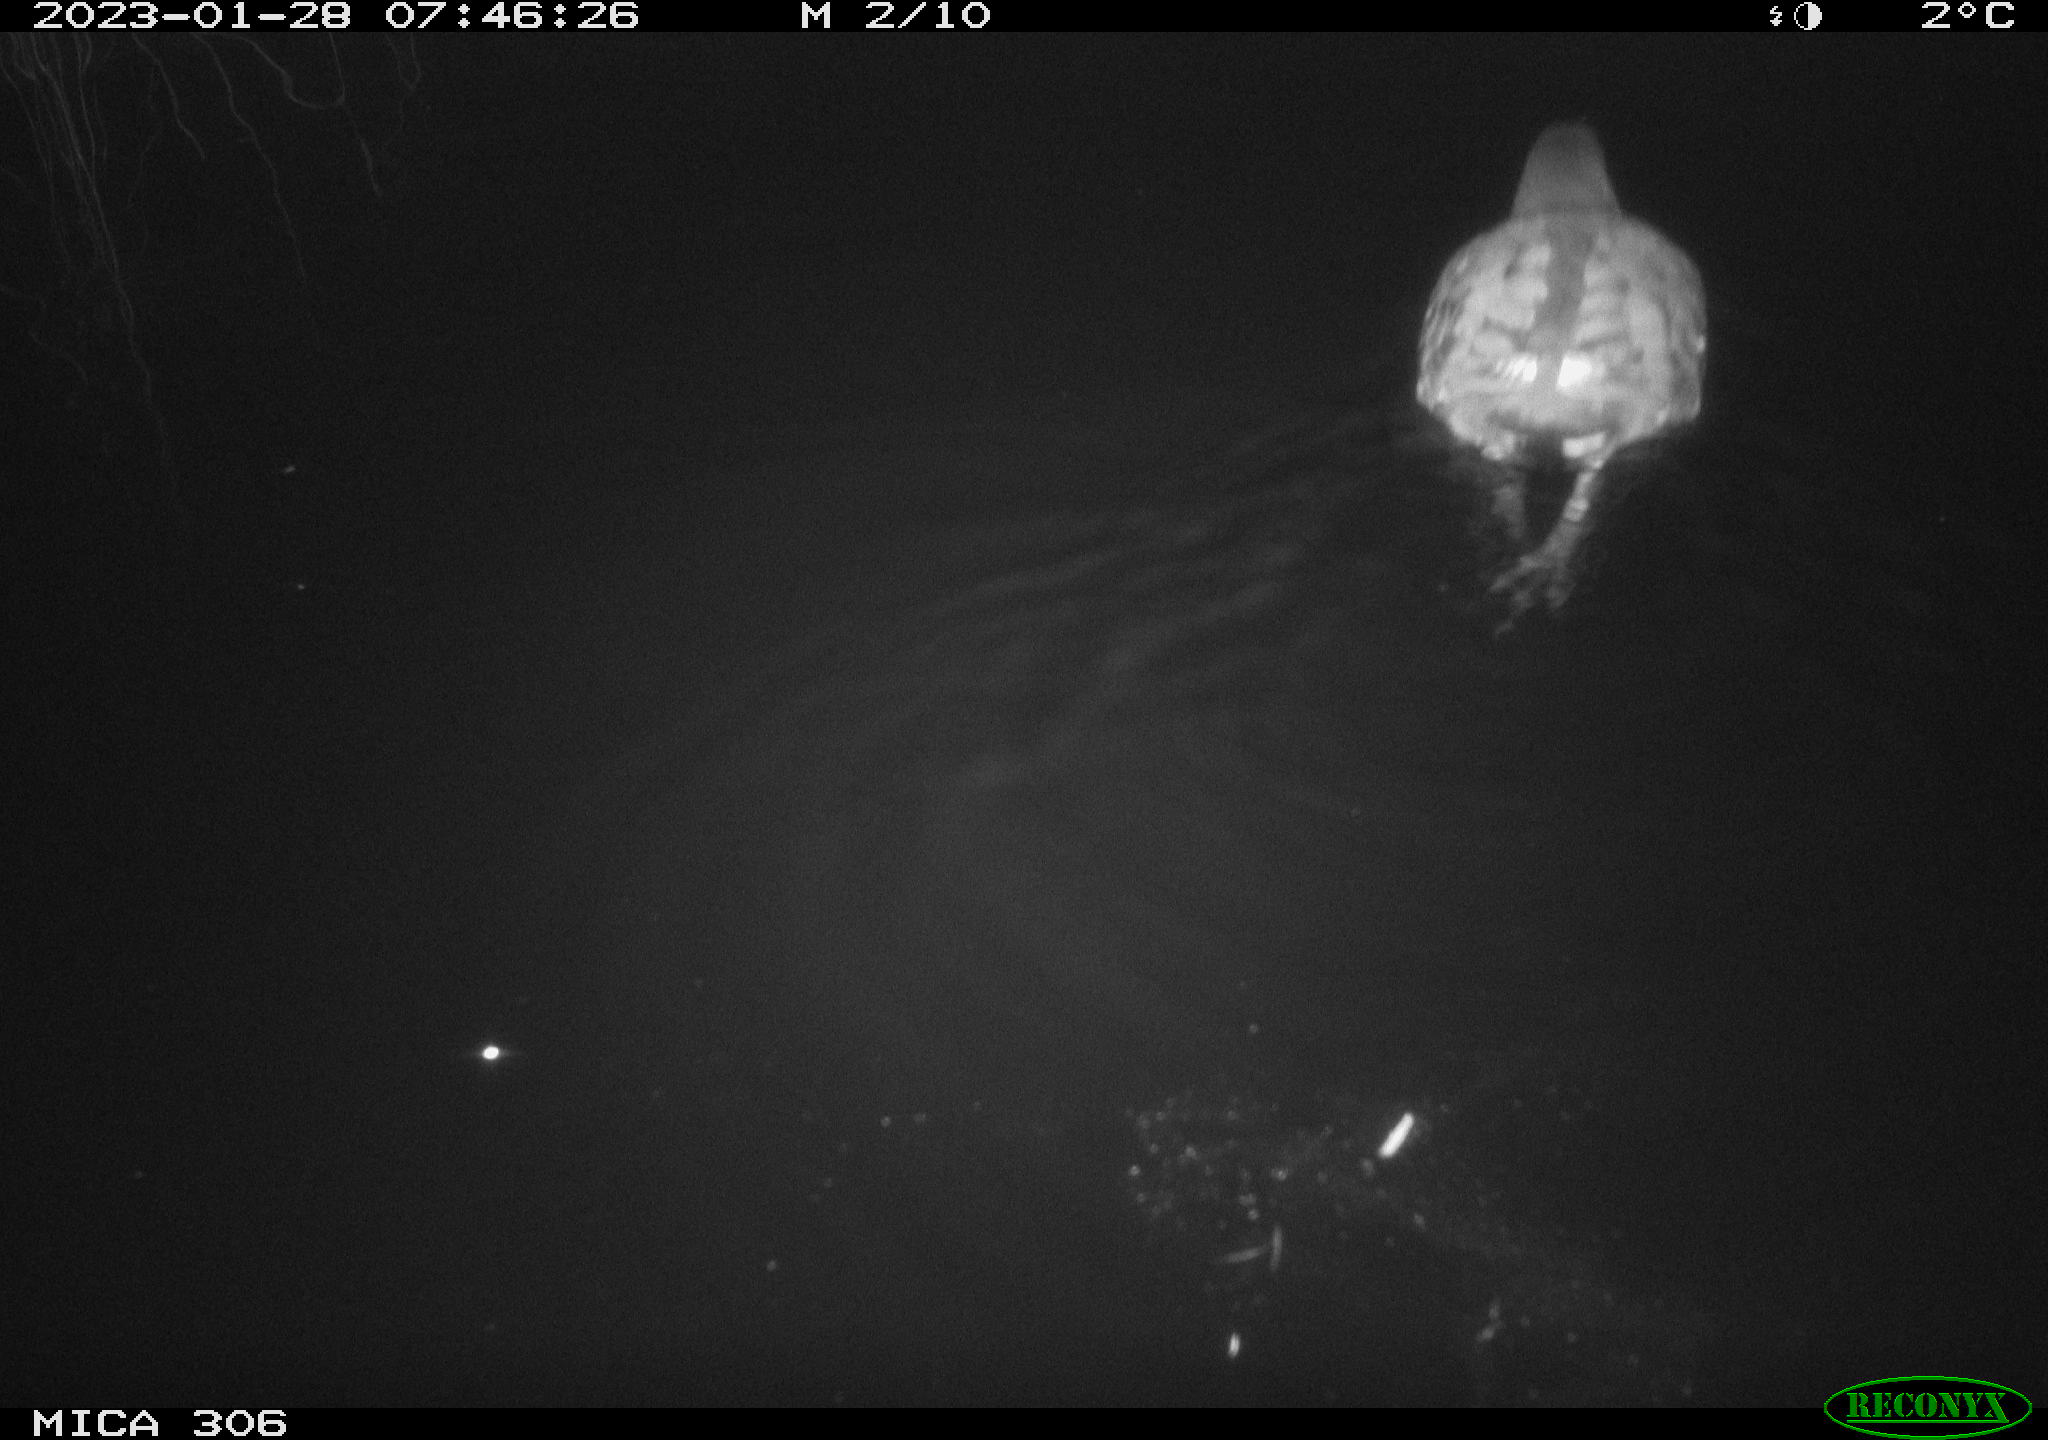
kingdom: Animalia
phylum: Chordata
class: Aves
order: Anseriformes
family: Anatidae
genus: Anas
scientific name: Anas
